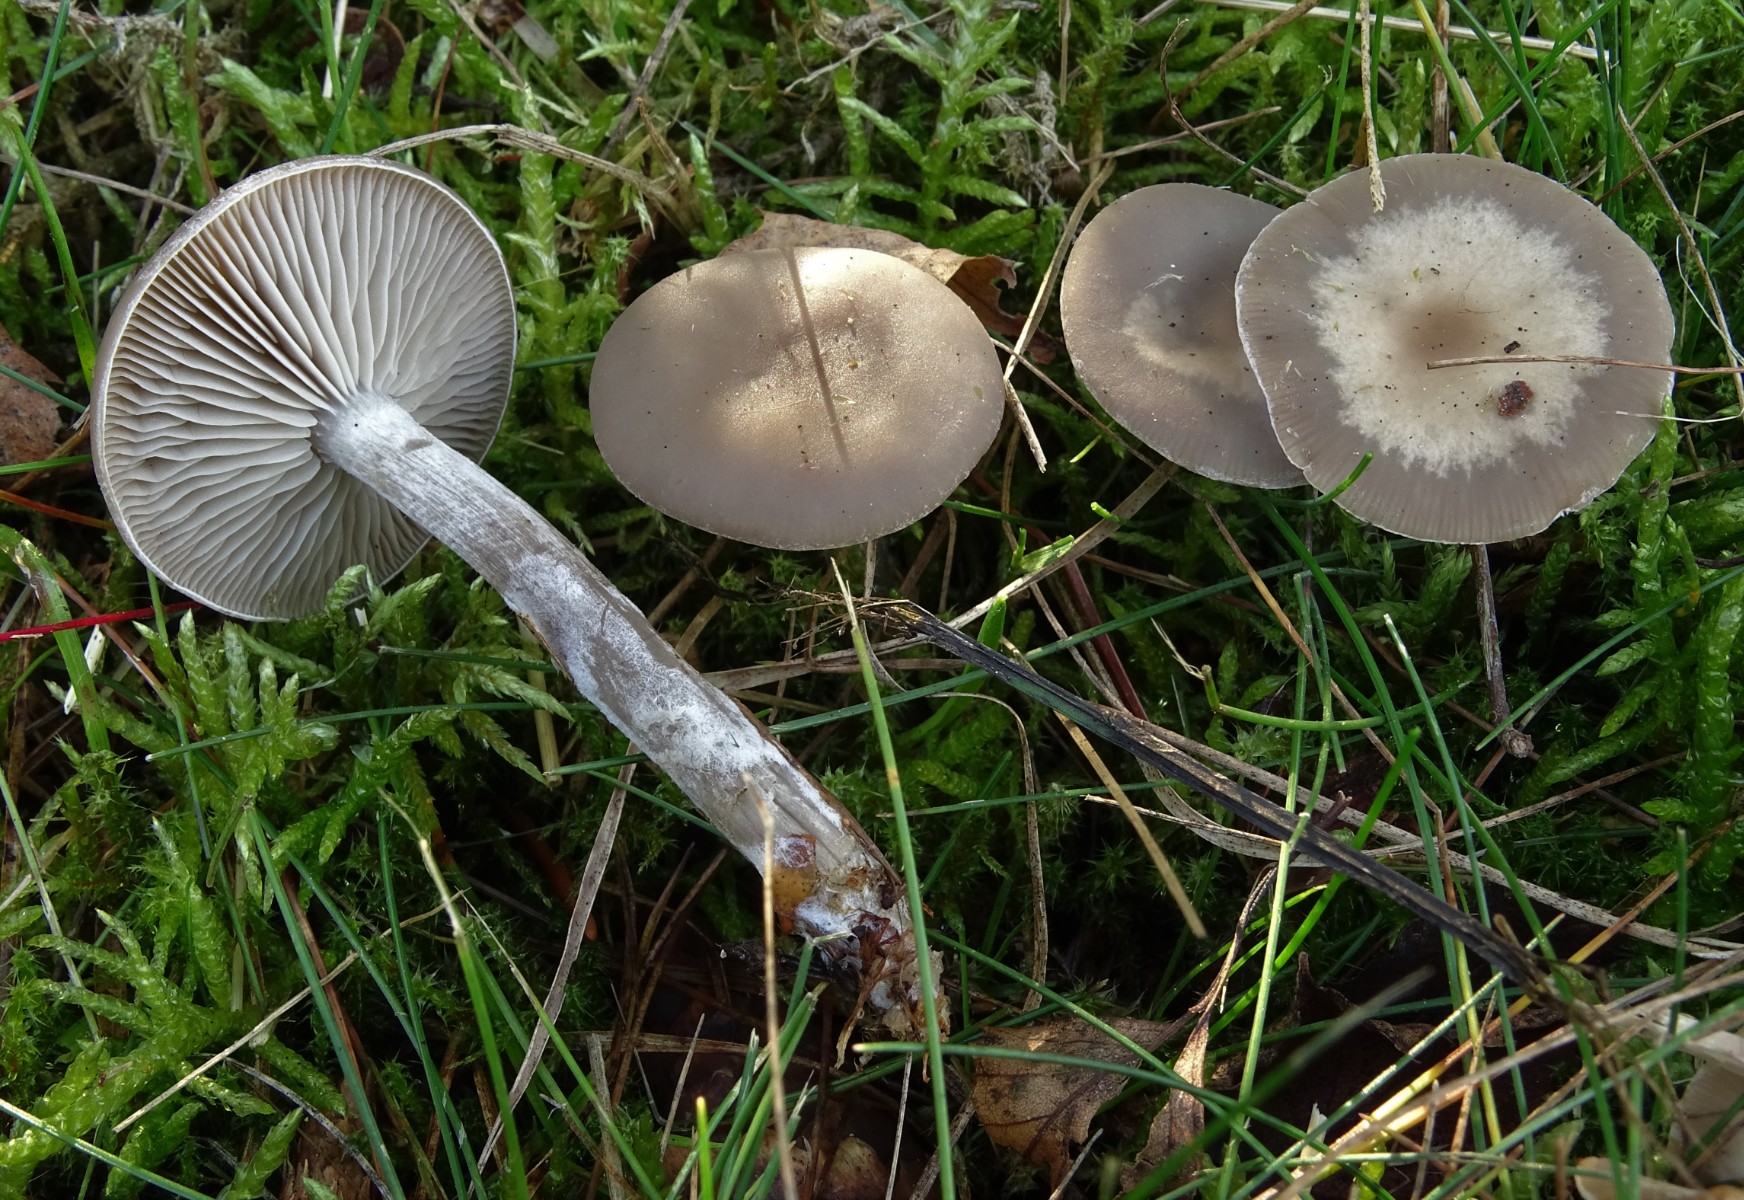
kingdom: Fungi
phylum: Basidiomycota
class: Agaricomycetes
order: Agaricales
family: Tricholomataceae
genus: Clitocybe
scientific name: Clitocybe metachroa
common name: grå tragthat
